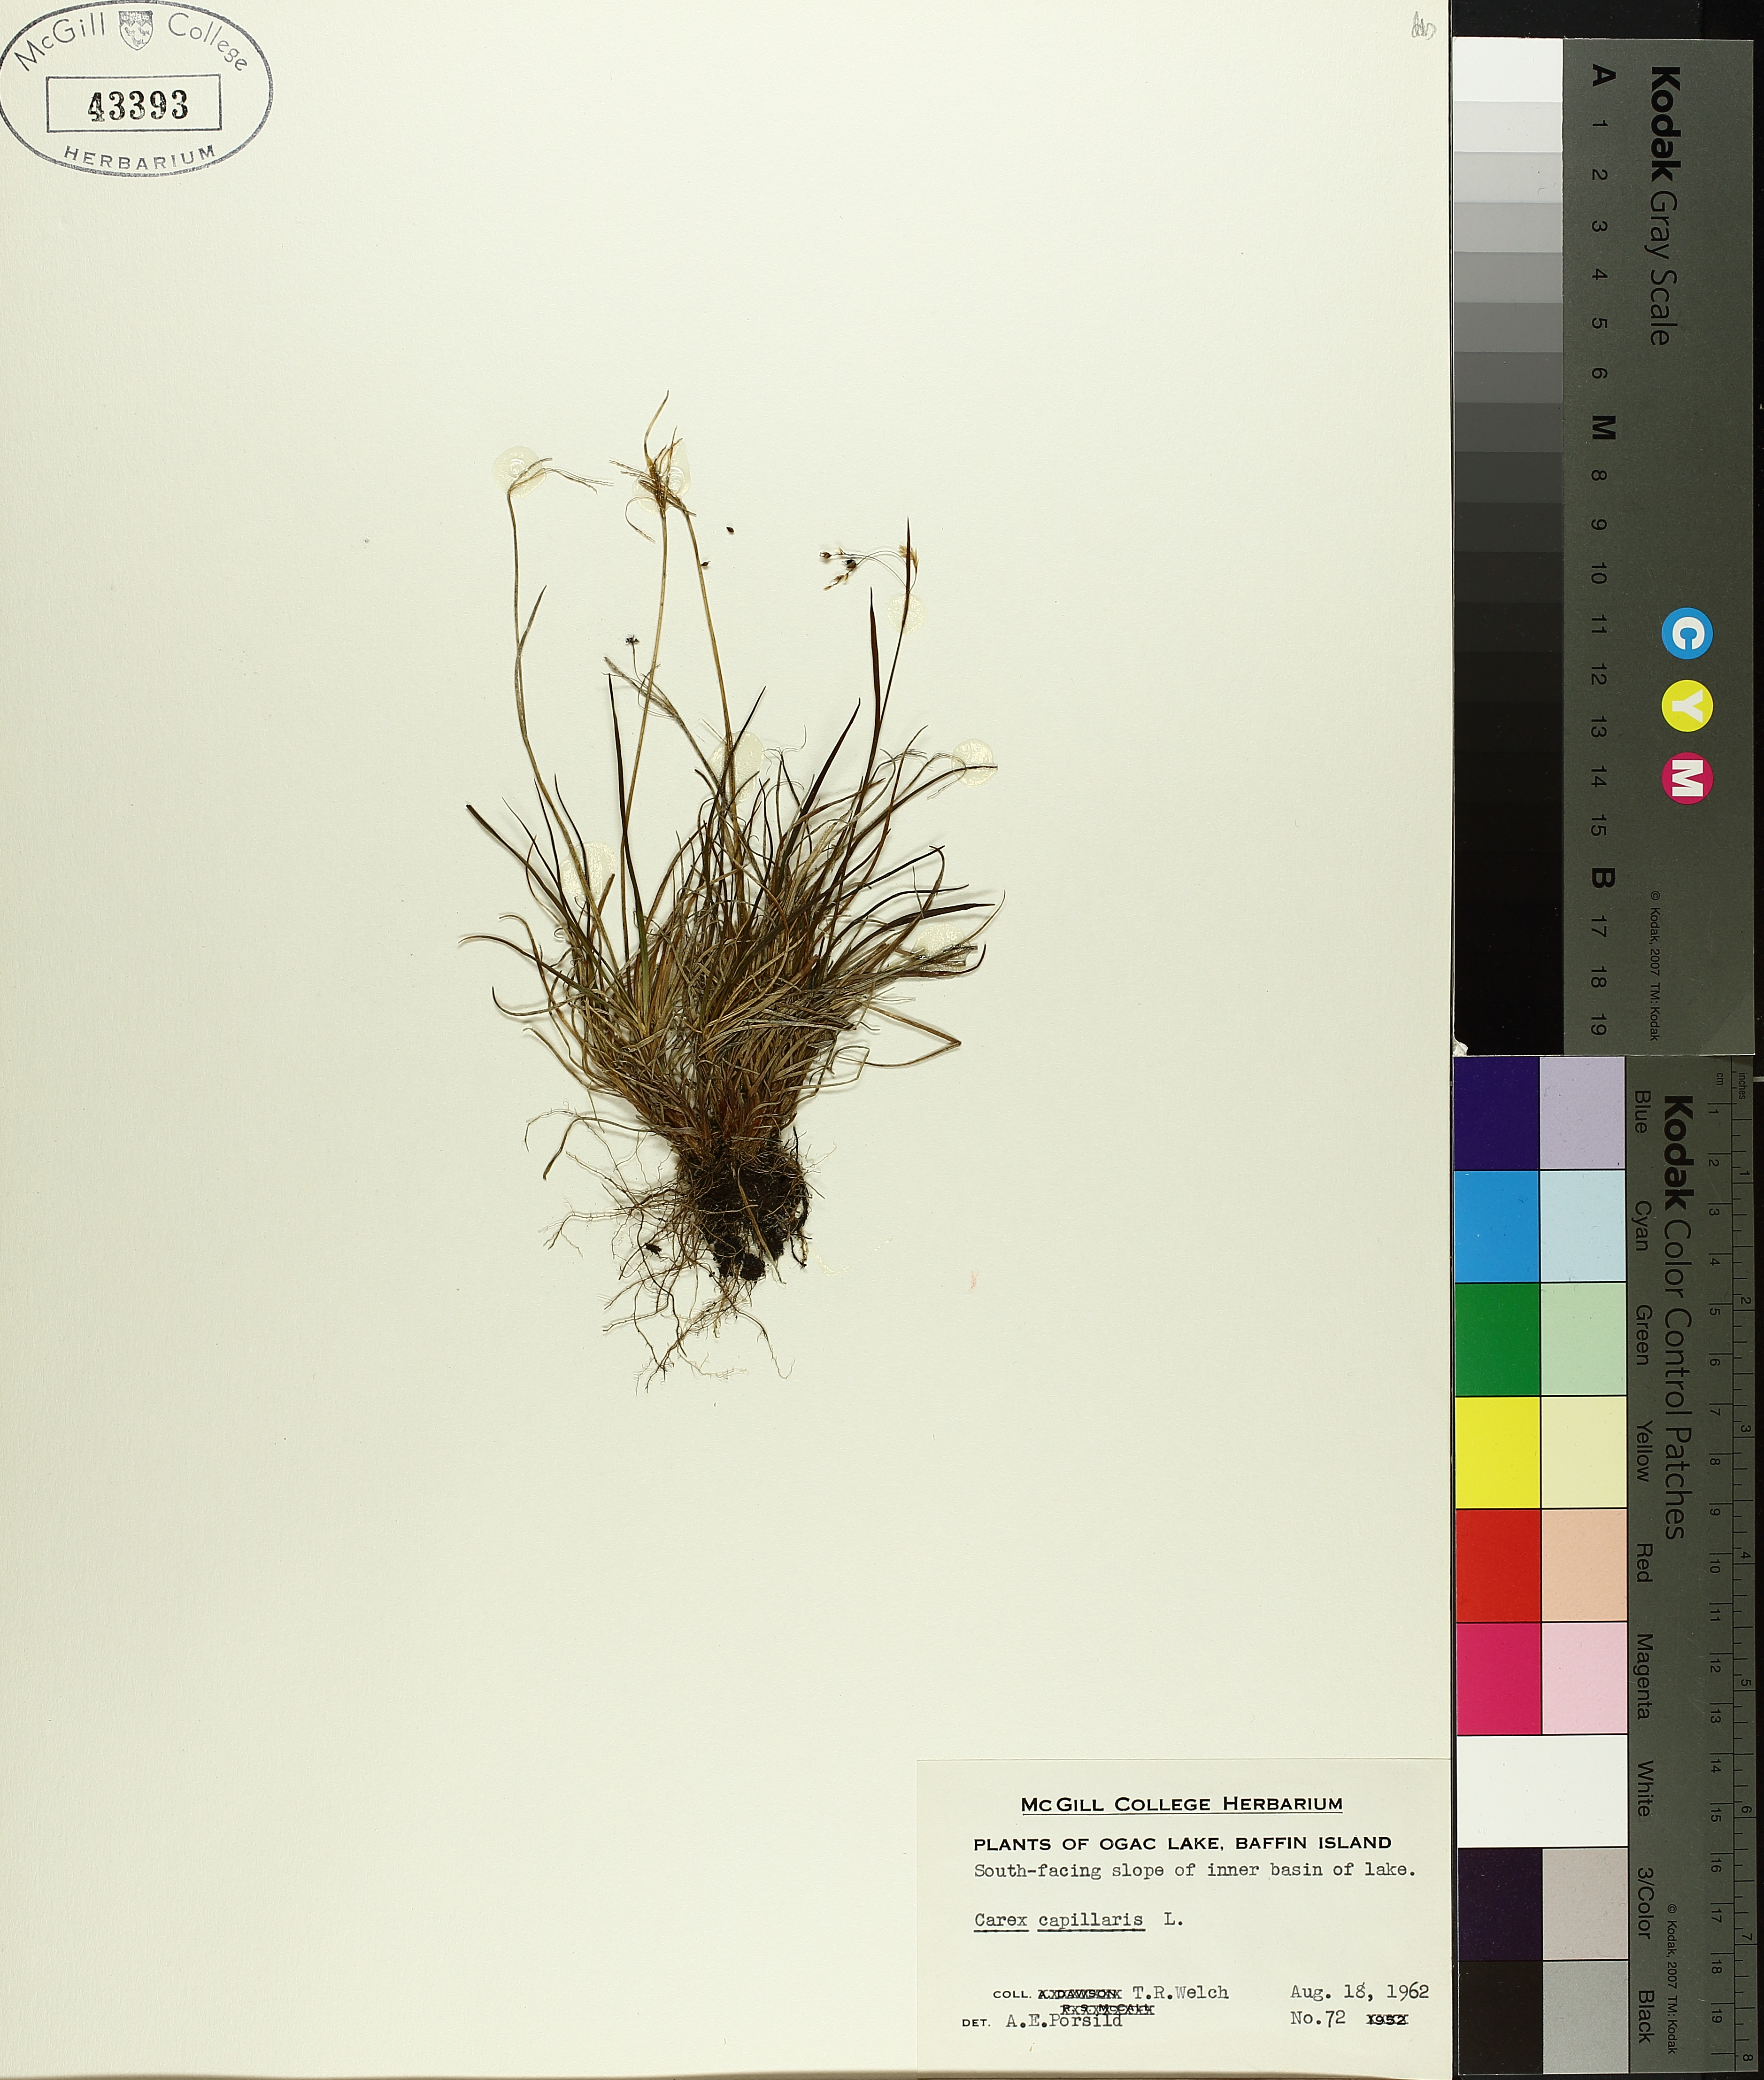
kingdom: Plantae
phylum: Tracheophyta
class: Liliopsida
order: Poales
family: Cyperaceae
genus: Carex
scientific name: Carex capillaris
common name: Hair sedge
